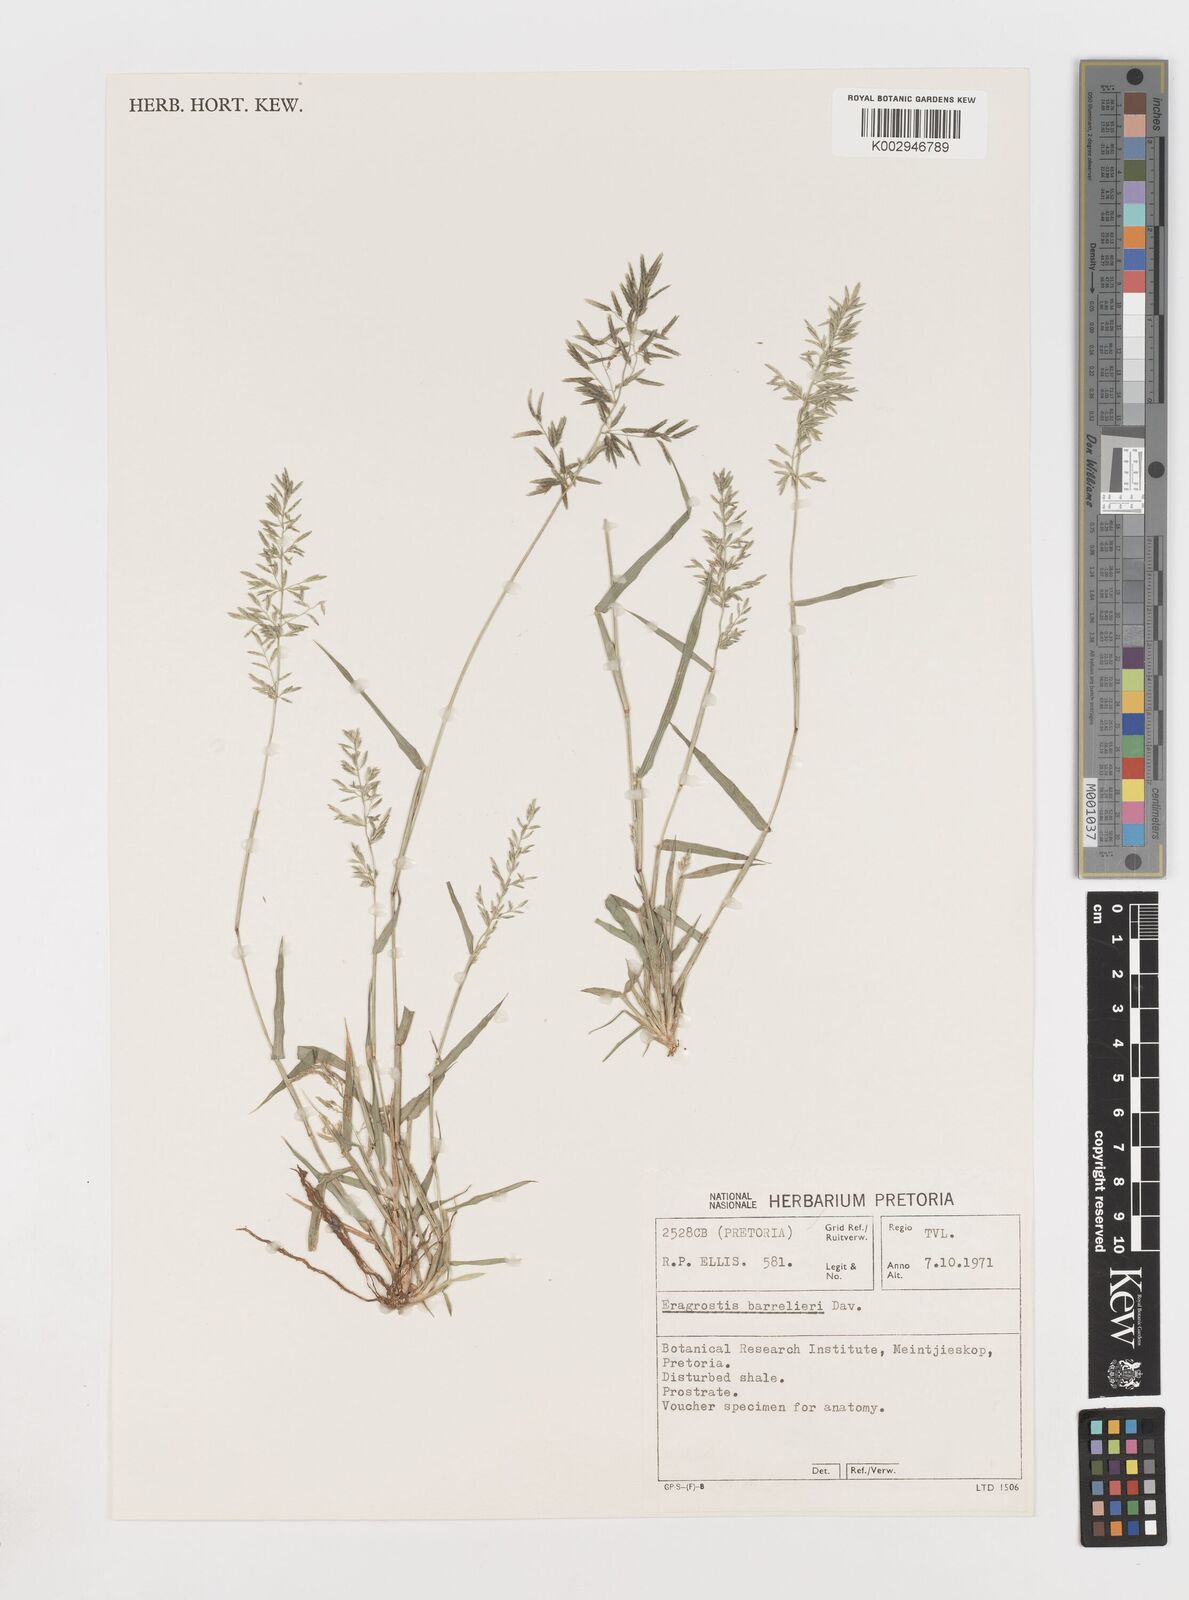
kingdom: Plantae
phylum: Tracheophyta
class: Liliopsida
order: Poales
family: Poaceae
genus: Eragrostis
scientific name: Eragrostis barrelieri
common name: Mediterranean lovegrass
